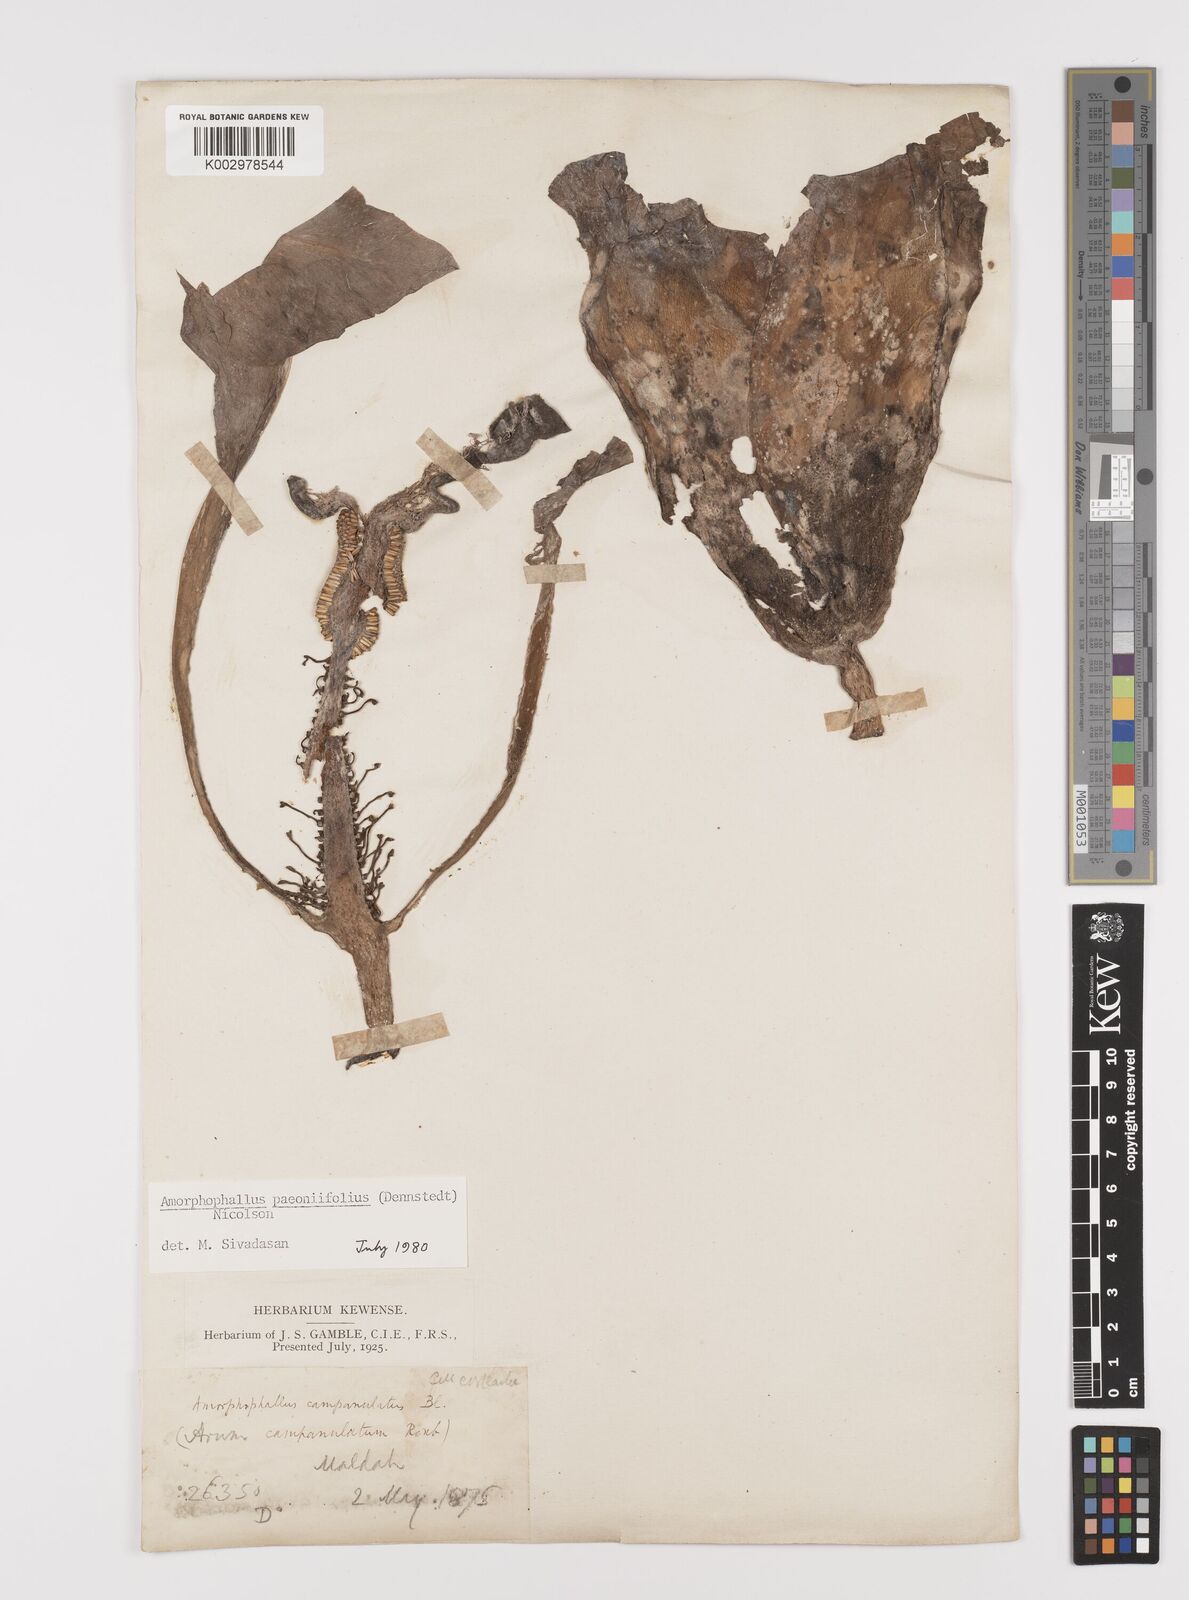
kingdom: Plantae
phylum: Tracheophyta
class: Liliopsida
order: Alismatales
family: Araceae
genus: Amorphophallus
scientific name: Amorphophallus paeoniifolius
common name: Telinga-potato
